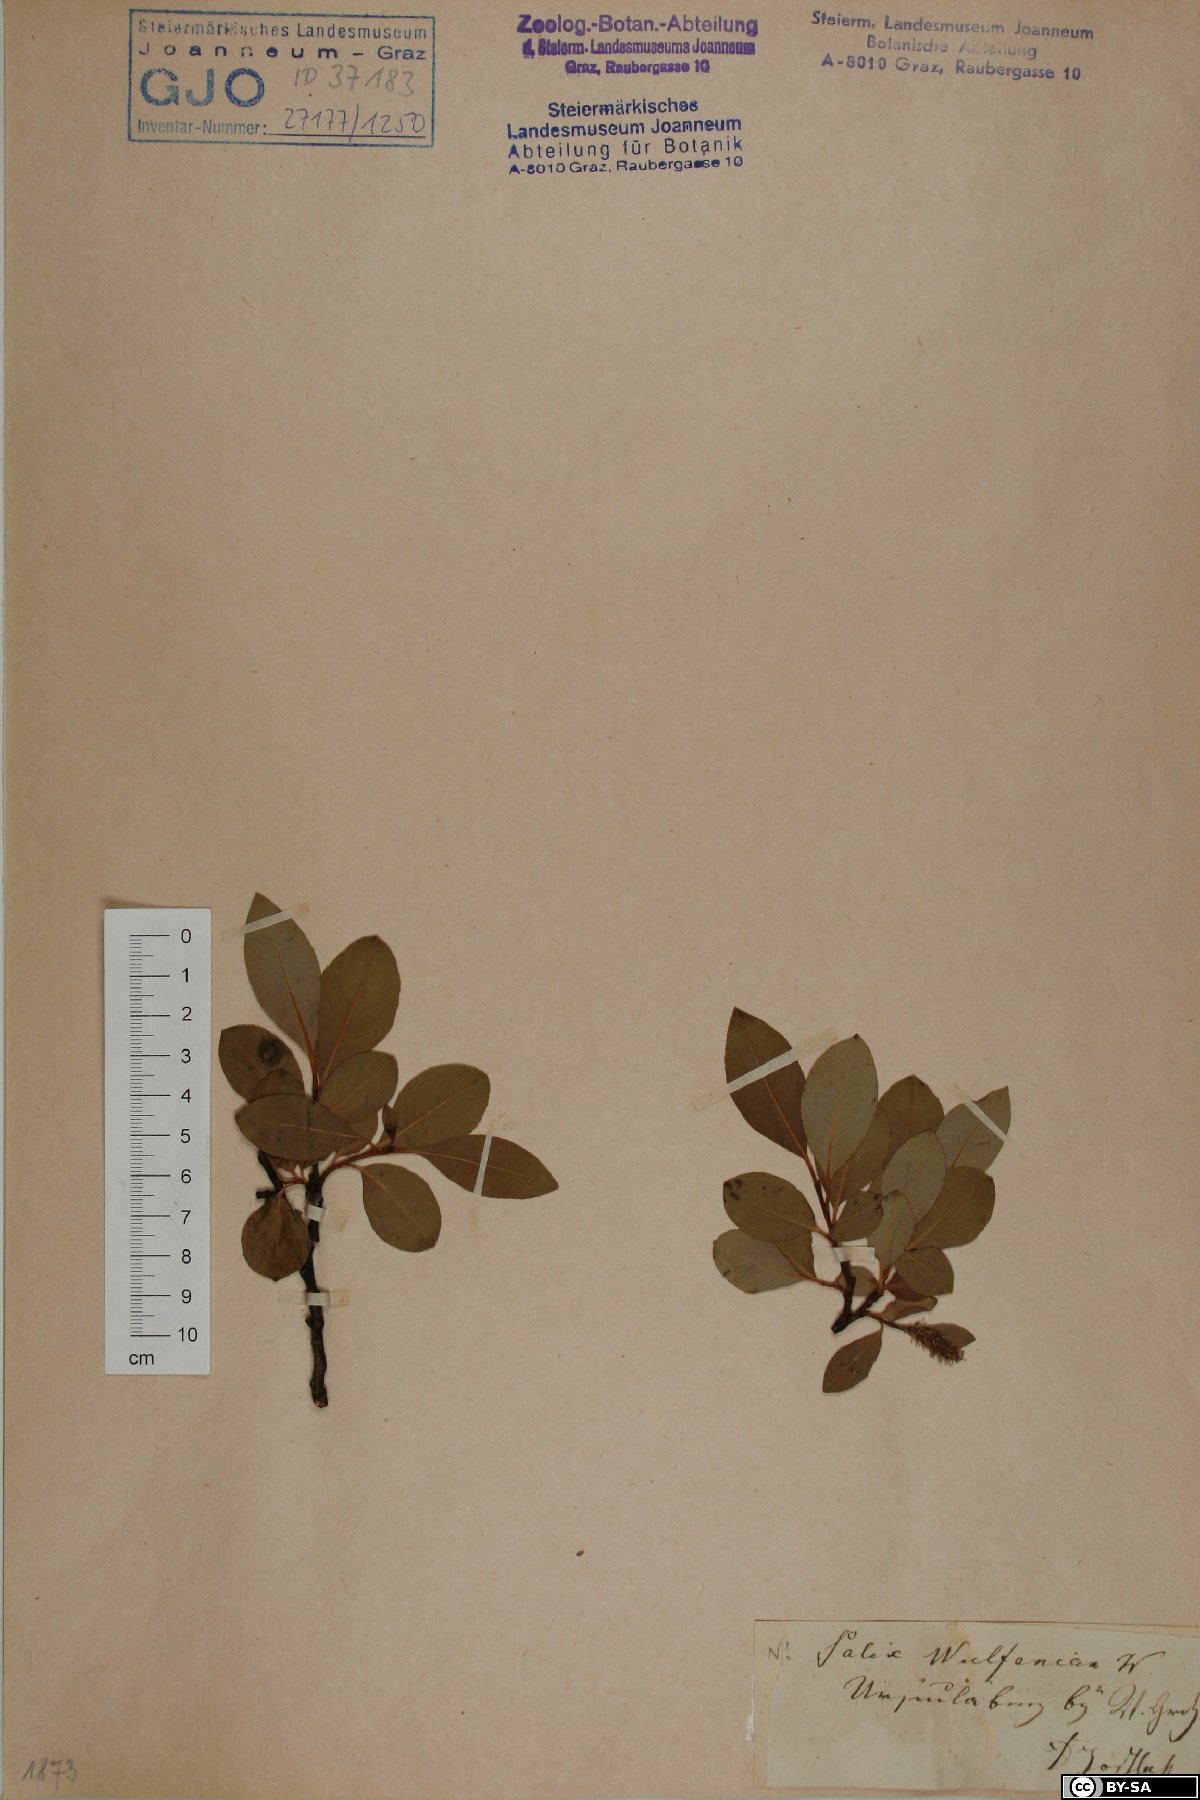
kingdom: Plantae
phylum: Tracheophyta
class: Magnoliopsida
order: Malpighiales
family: Salicaceae
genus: Salix
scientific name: Salix glabra
